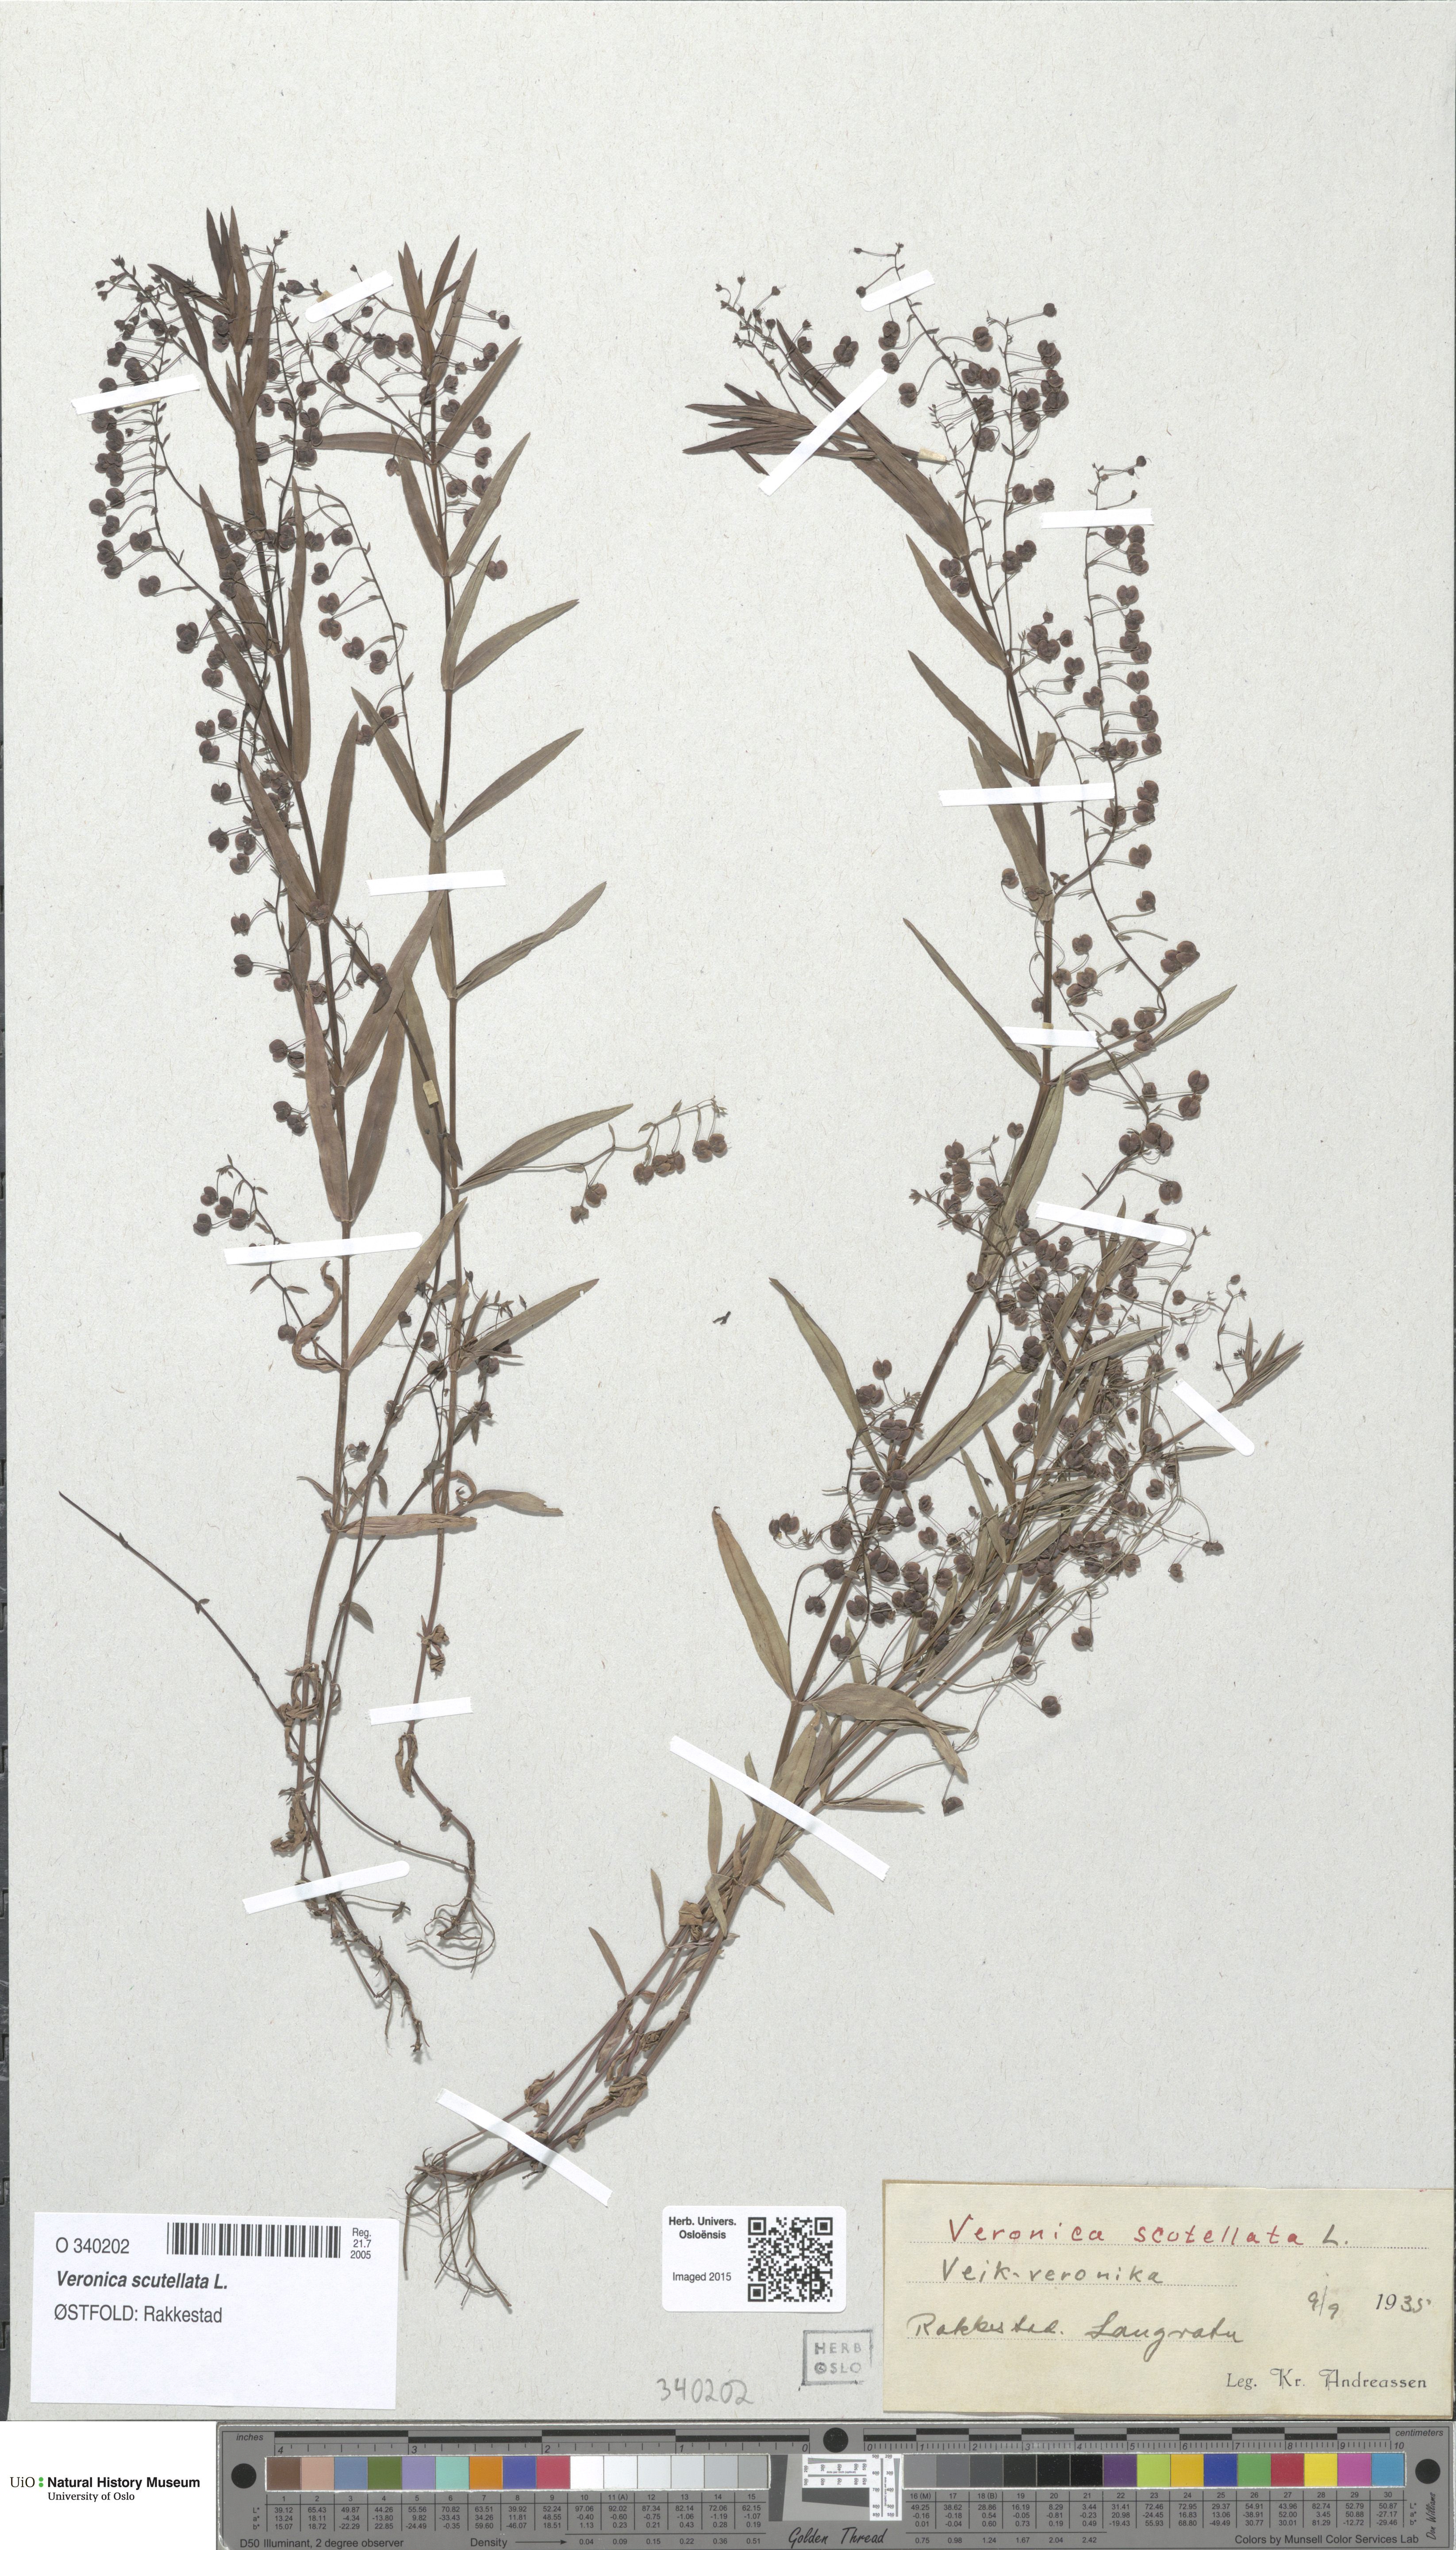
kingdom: Plantae
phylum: Tracheophyta
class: Magnoliopsida
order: Lamiales
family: Plantaginaceae
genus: Veronica
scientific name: Veronica scutellata
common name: Marsh speedwell
